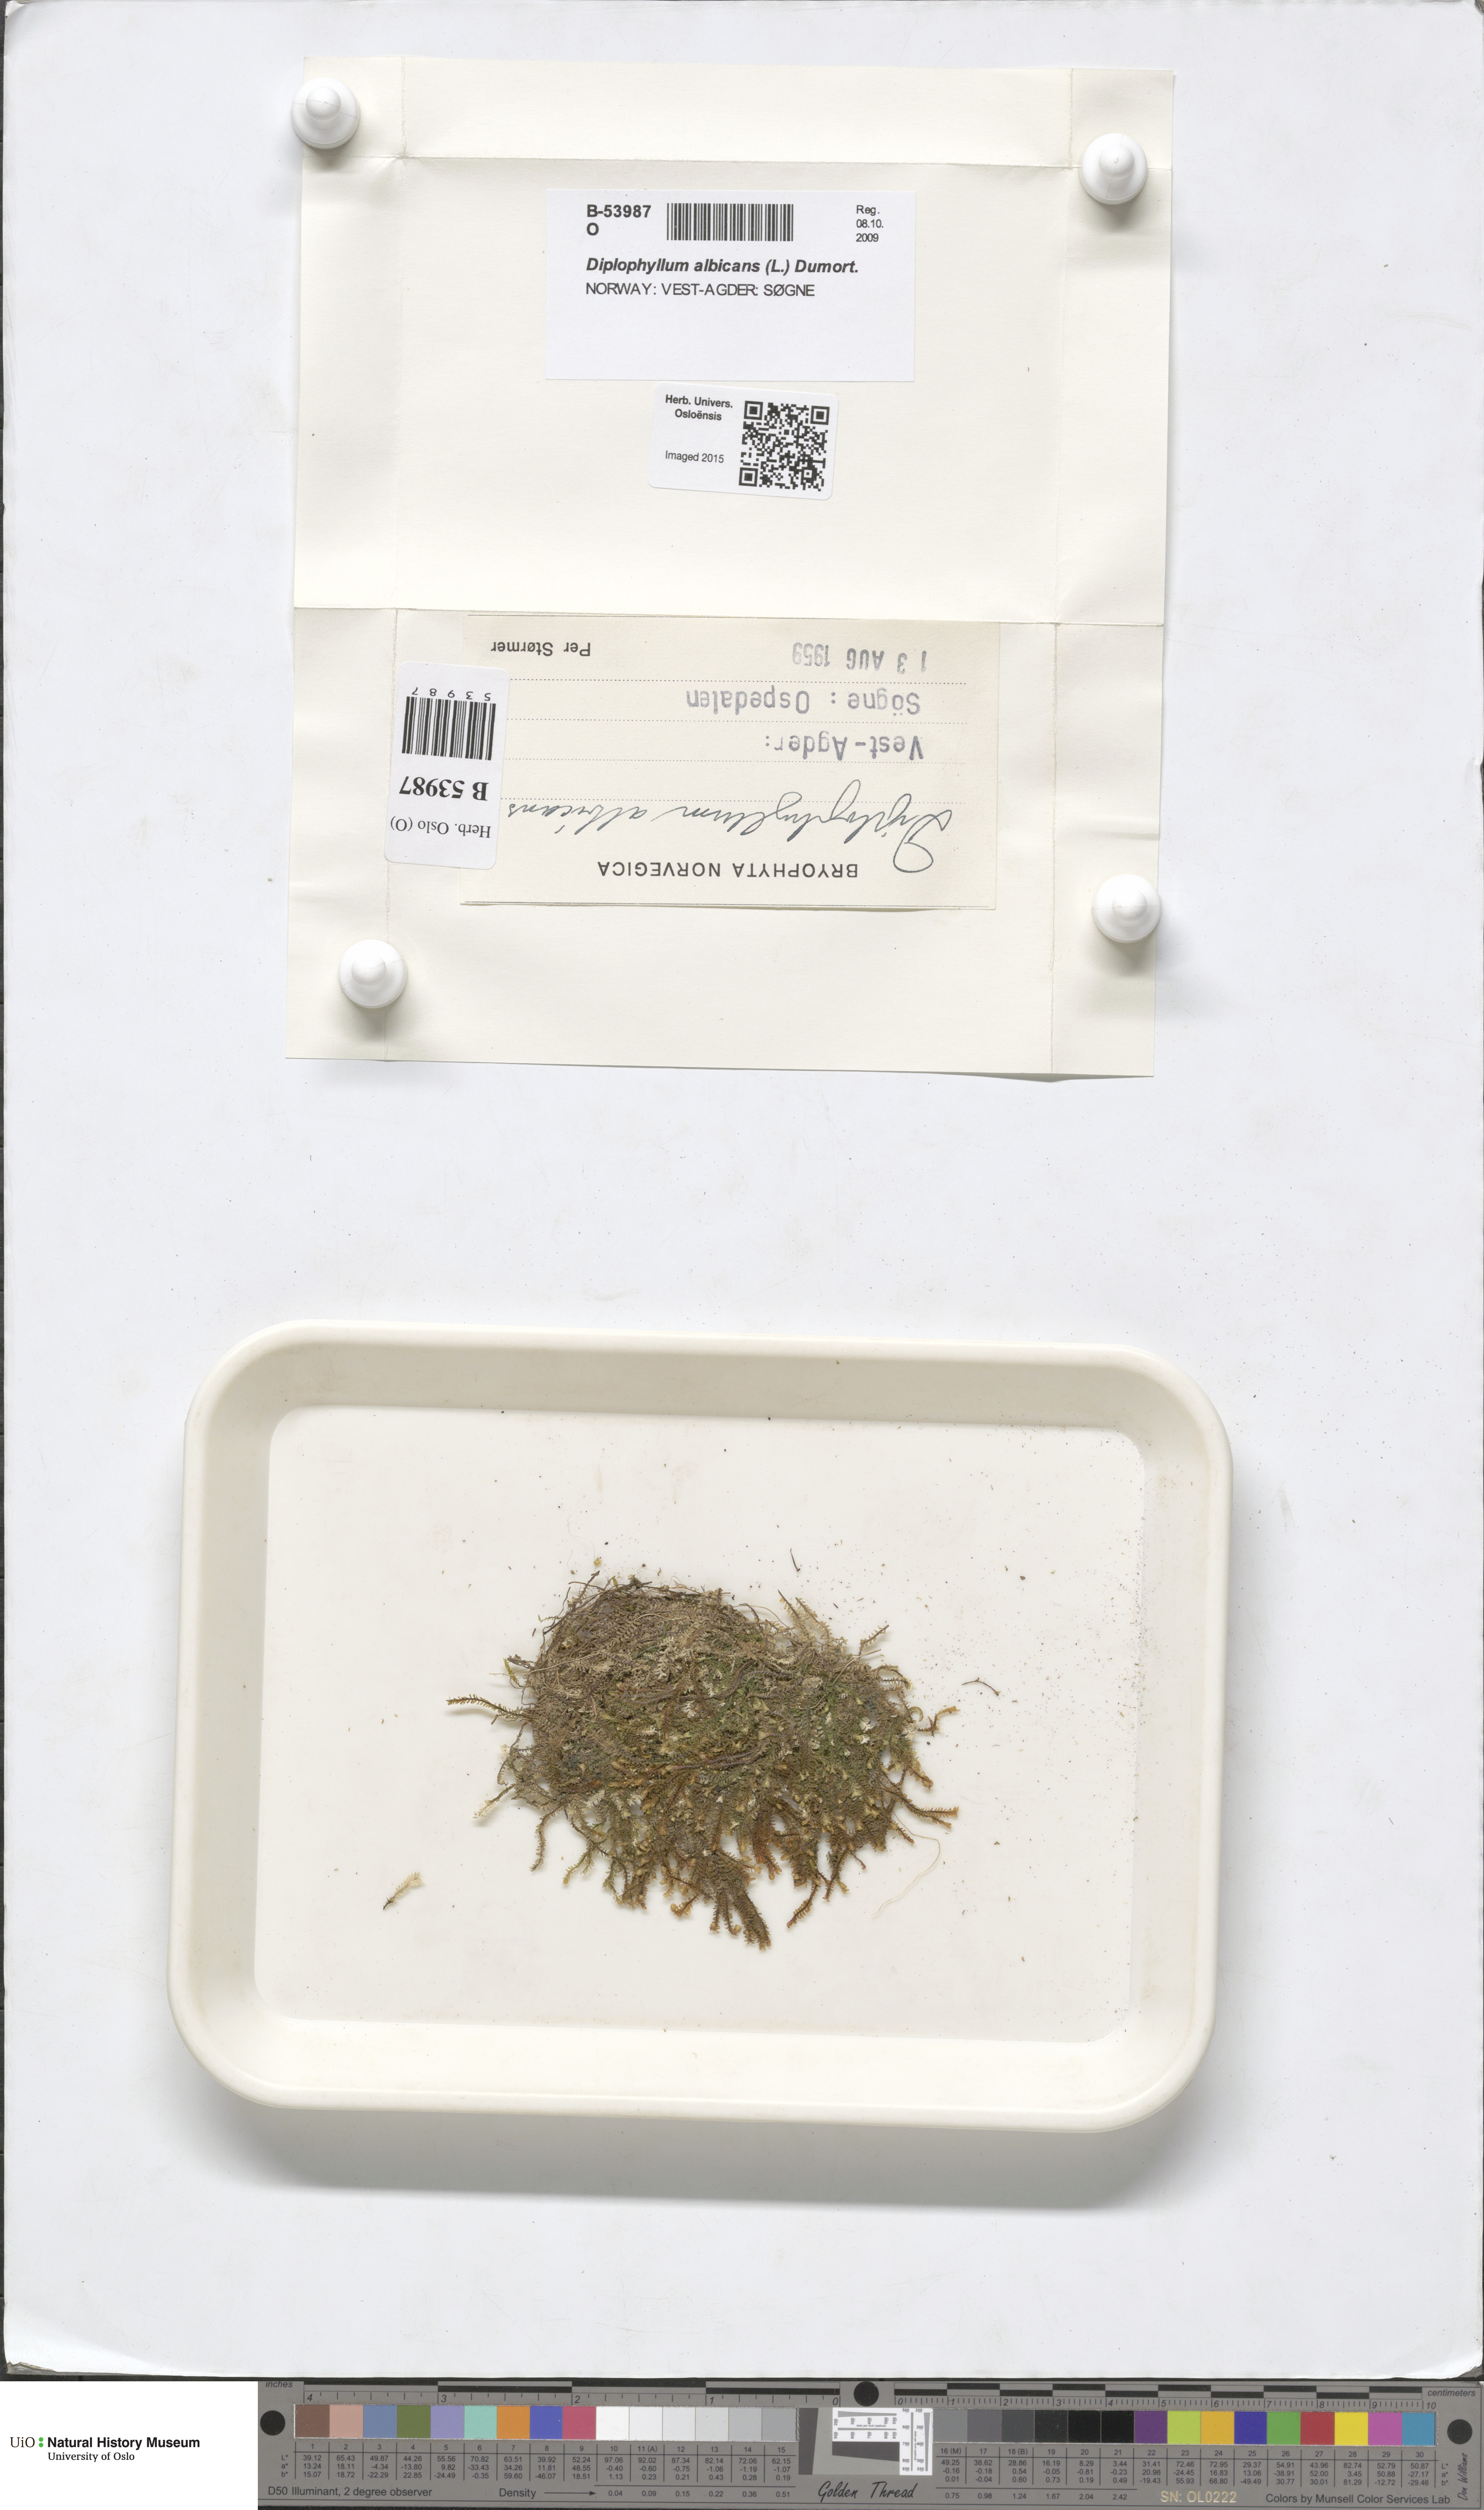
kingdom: Plantae
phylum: Marchantiophyta
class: Jungermanniopsida
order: Jungermanniales
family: Scapaniaceae
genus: Diplophyllum
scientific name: Diplophyllum albicans
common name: White earwort
